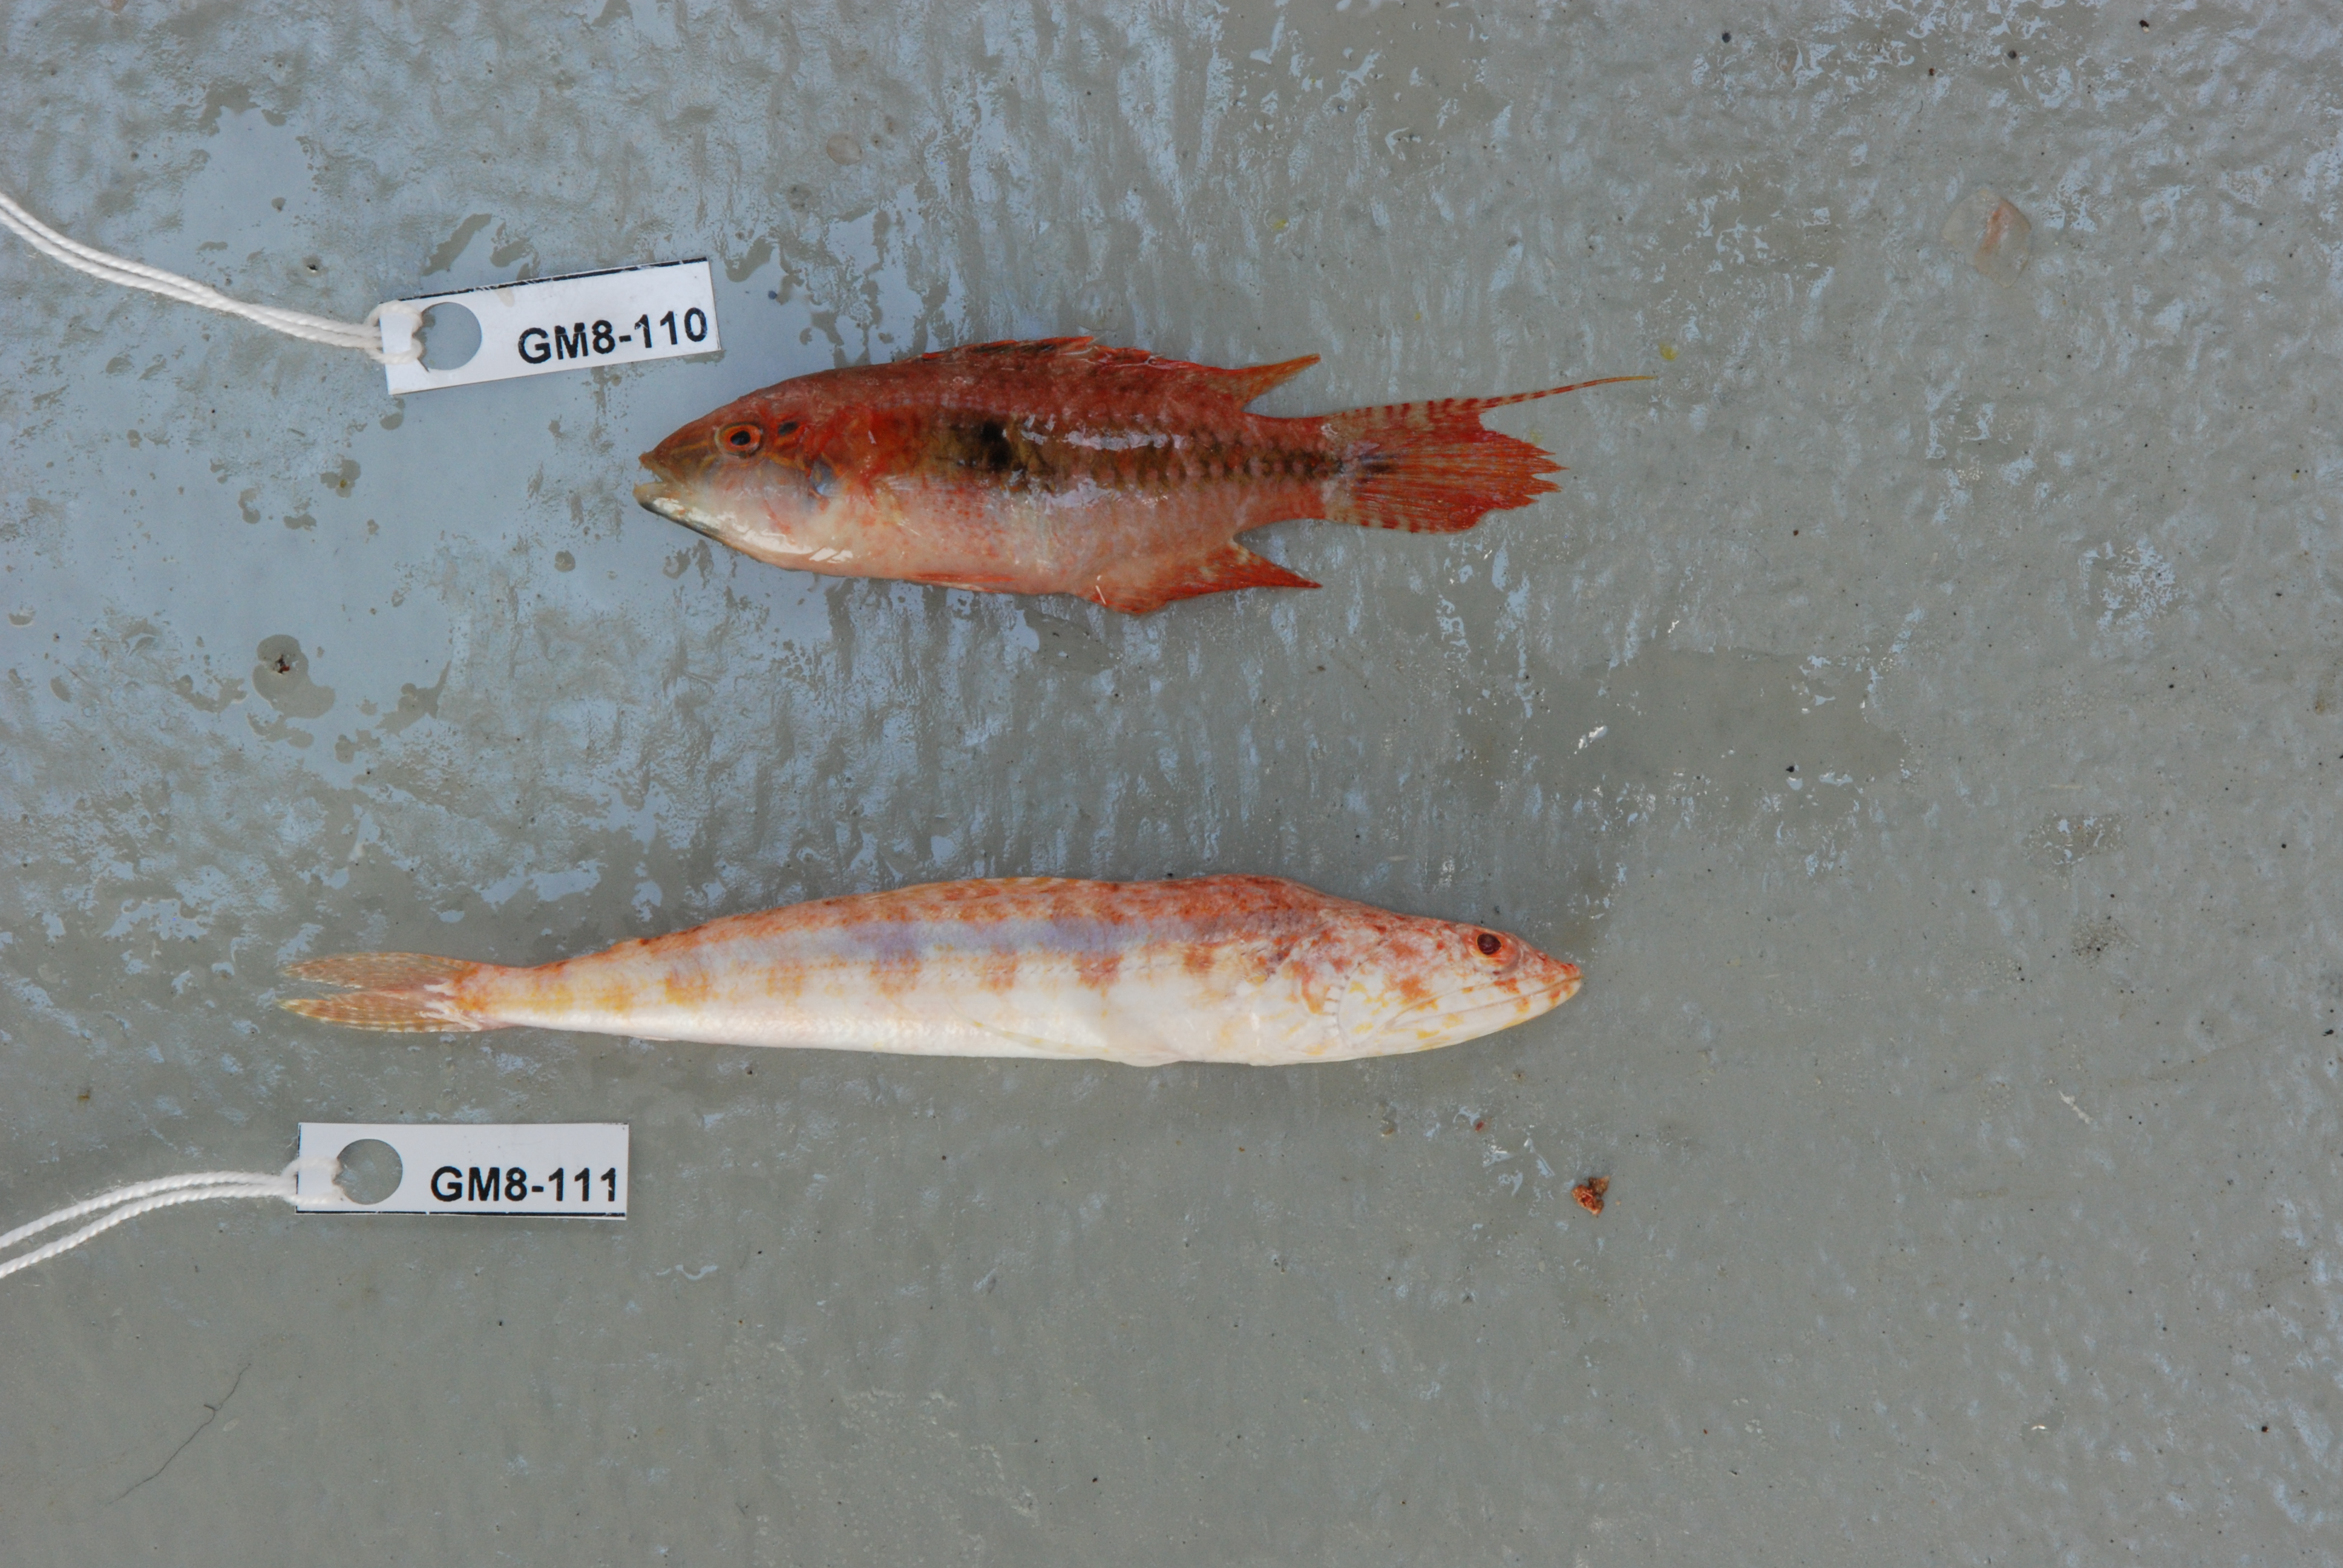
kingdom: Animalia
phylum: Chordata
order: Perciformes
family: Labridae
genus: Oxycheilinus
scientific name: Oxycheilinus bimaculatus
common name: Comettailed wrasse
